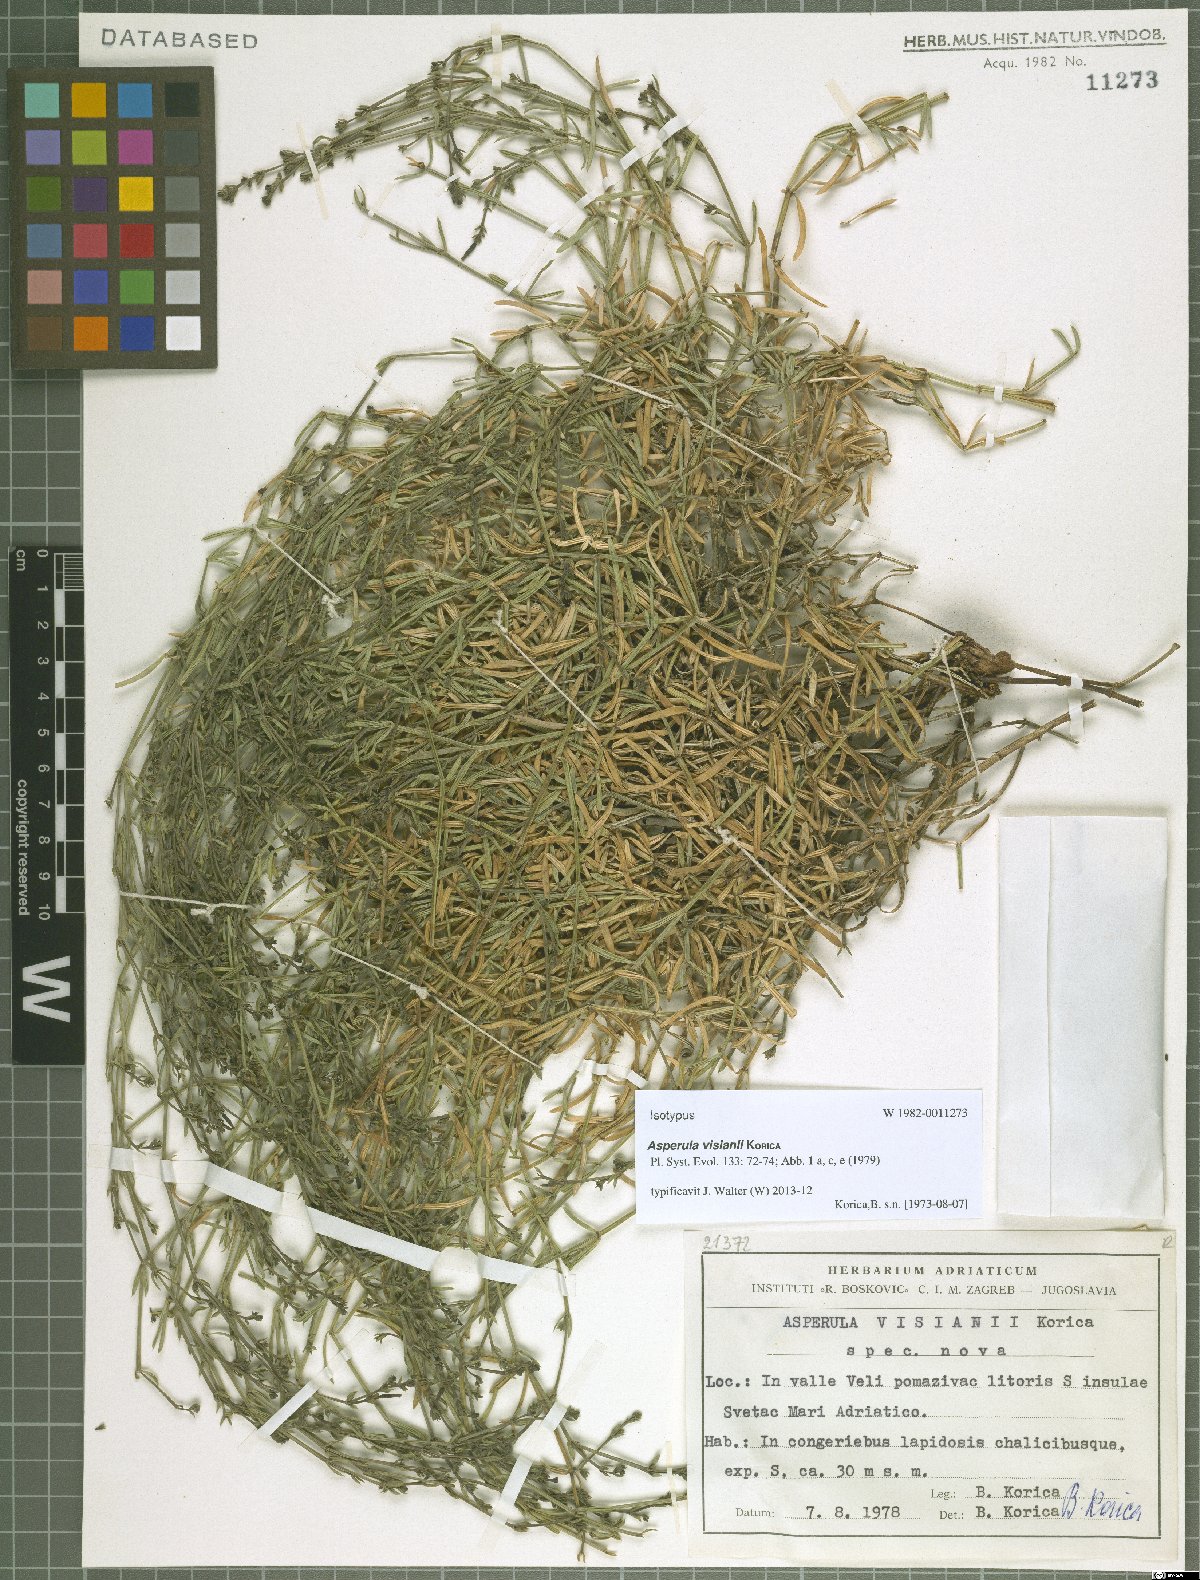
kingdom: Plantae
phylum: Tracheophyta
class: Magnoliopsida
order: Gentianales
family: Rubiaceae
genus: Cynanchica
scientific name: Cynanchica visianii
